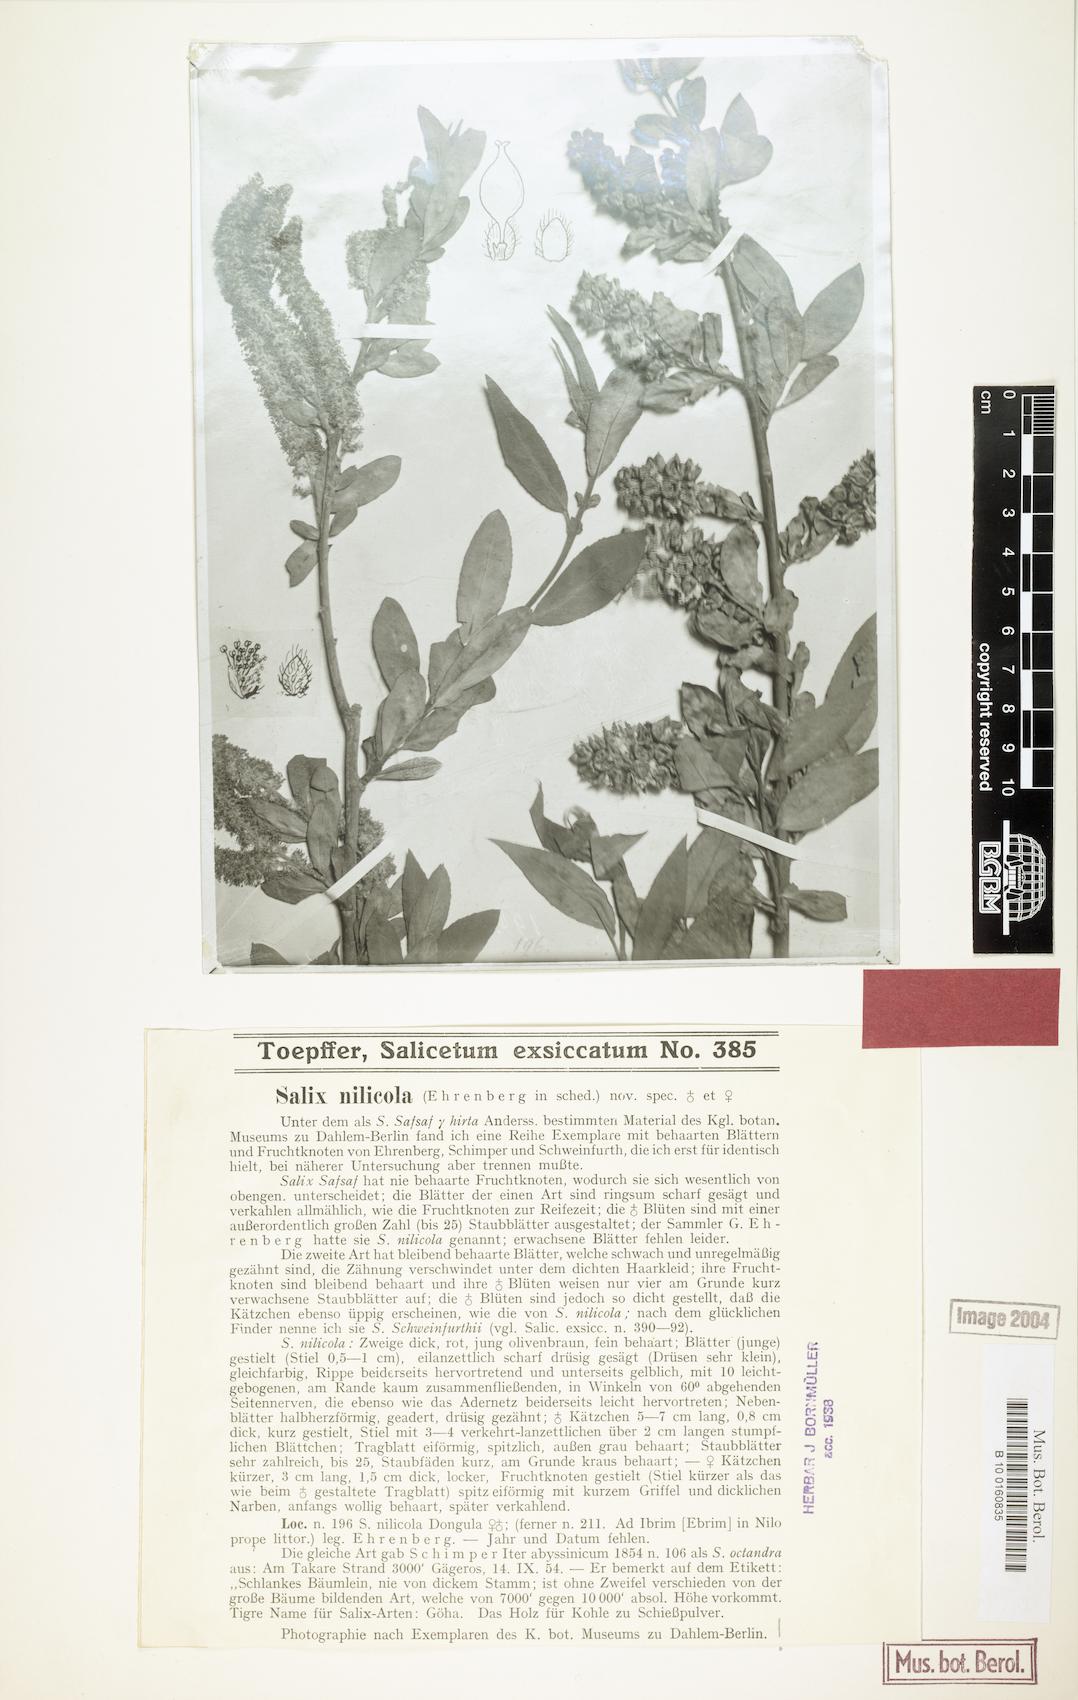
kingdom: Plantae
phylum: Tracheophyta
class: Magnoliopsida
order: Malpighiales
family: Salicaceae
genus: Salix
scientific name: Salix mucronata
